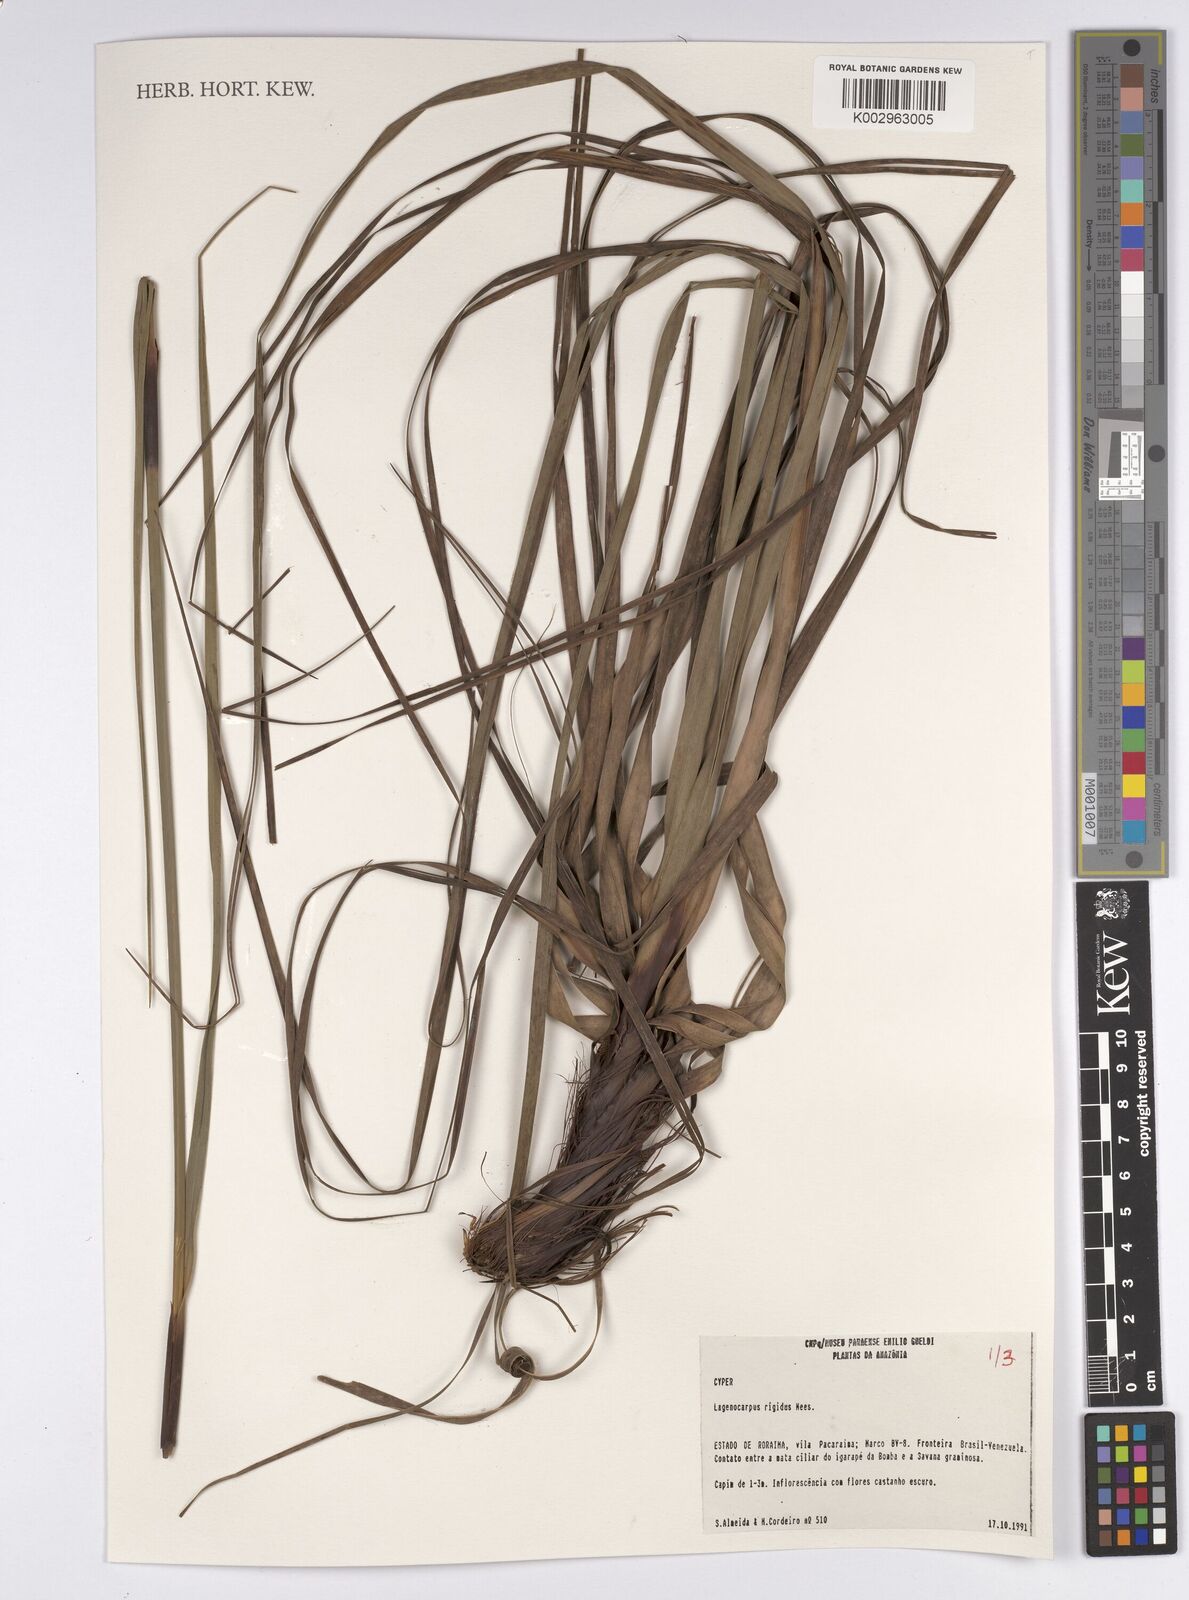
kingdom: Plantae
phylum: Tracheophyta
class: Liliopsida
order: Poales
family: Cyperaceae
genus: Lagenocarpus
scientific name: Lagenocarpus rigidus
